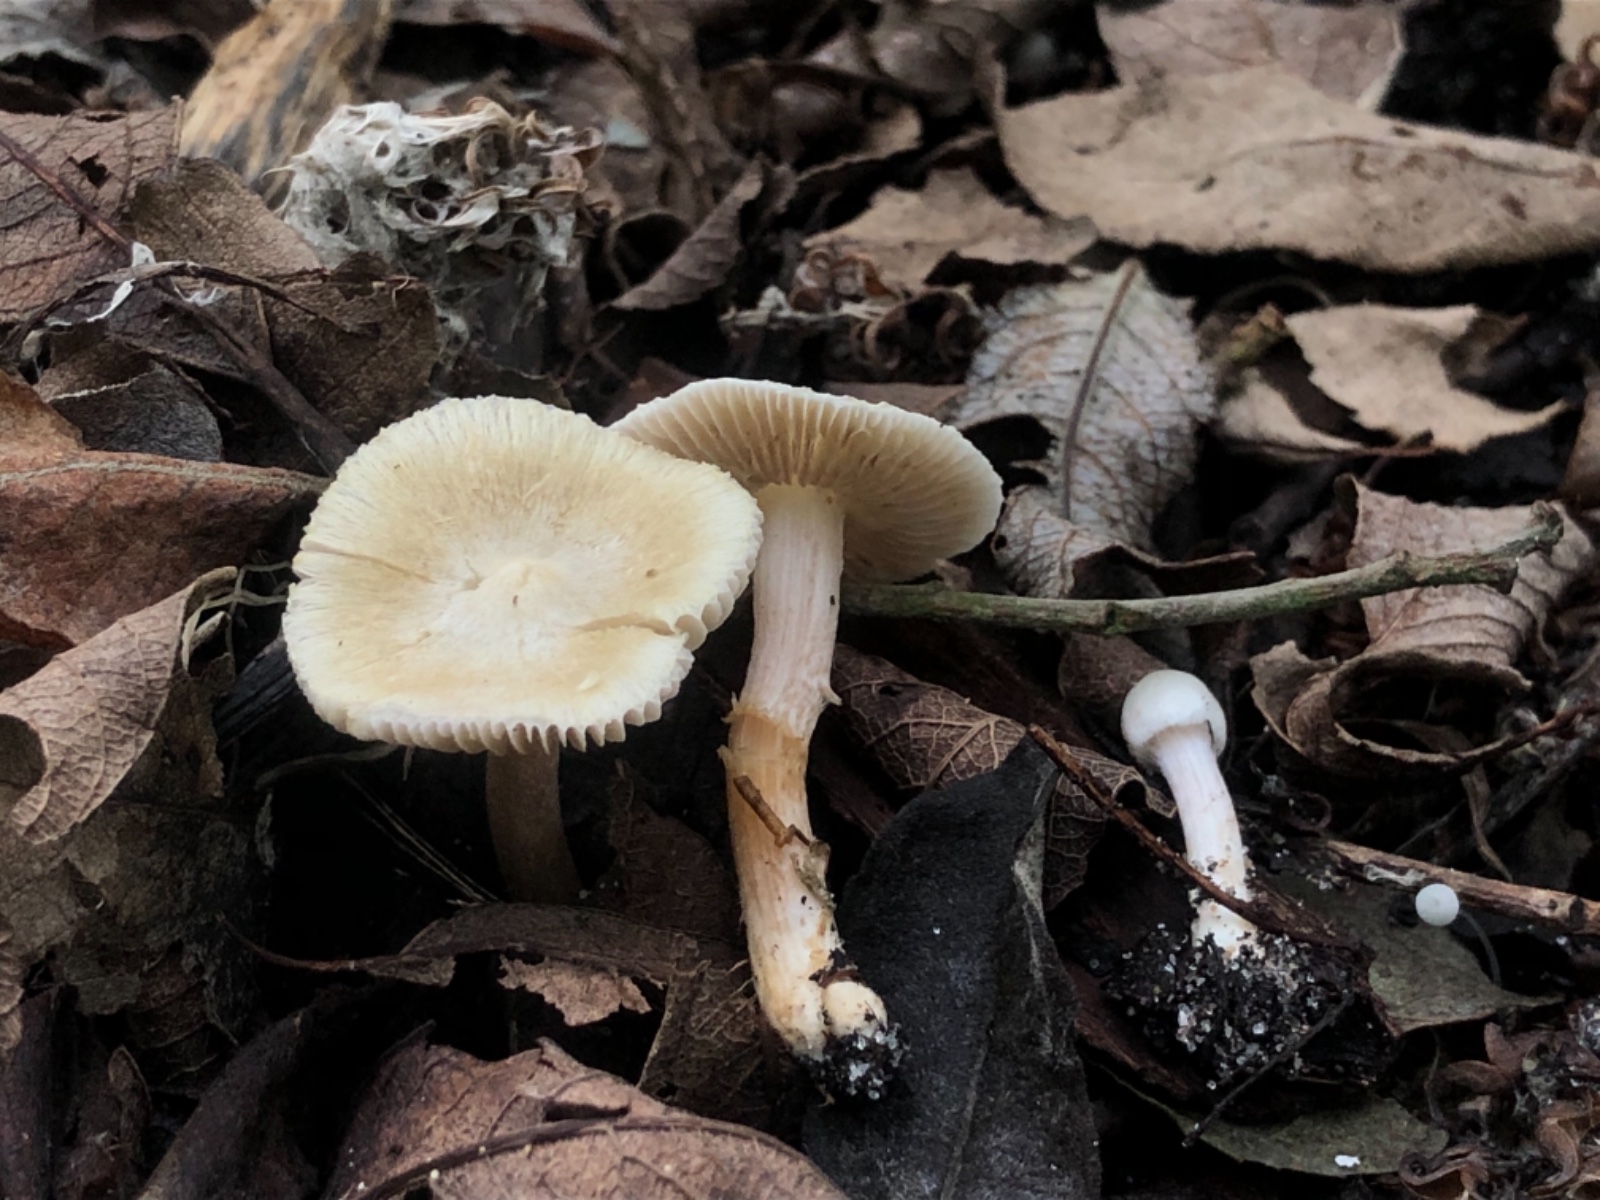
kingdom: Fungi
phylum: Basidiomycota
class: Agaricomycetes
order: Agaricales
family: Inocybaceae
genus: Inocybe
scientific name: Inocybe sambucella
